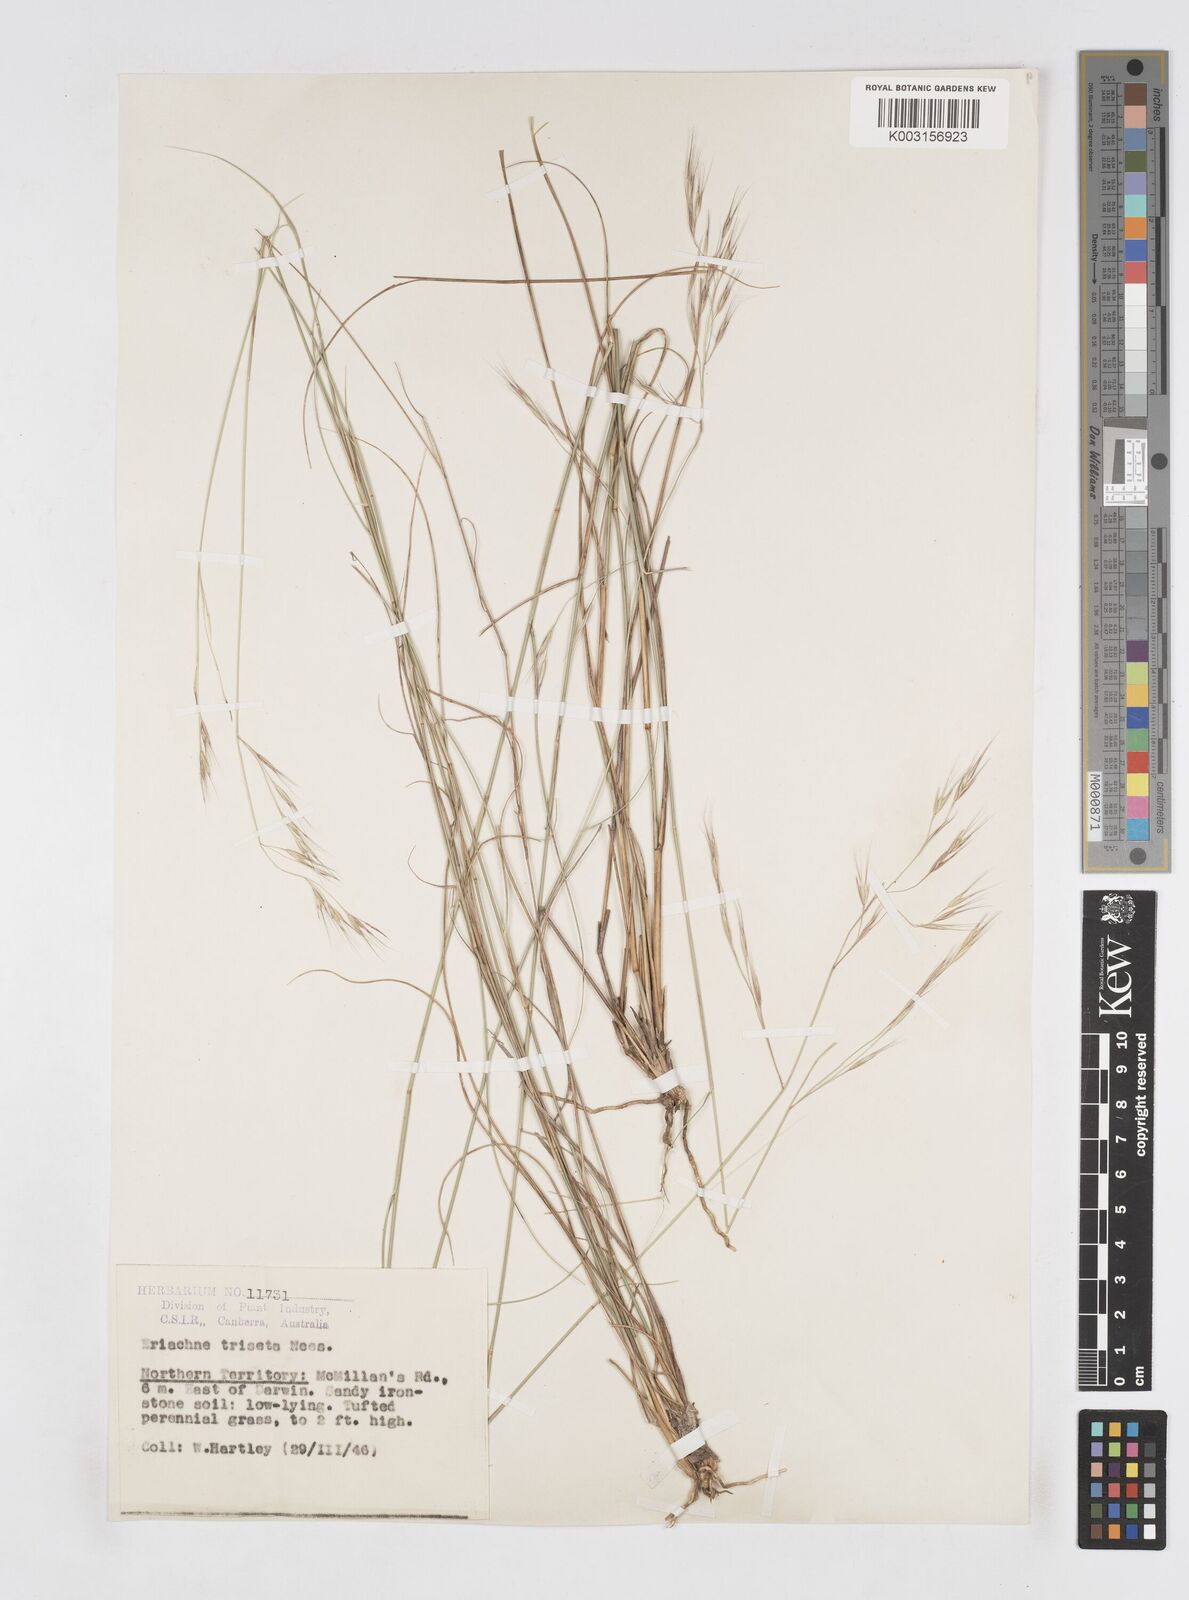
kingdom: Plantae
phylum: Tracheophyta
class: Liliopsida
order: Poales
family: Poaceae
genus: Eriachne
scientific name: Eriachne triseta
